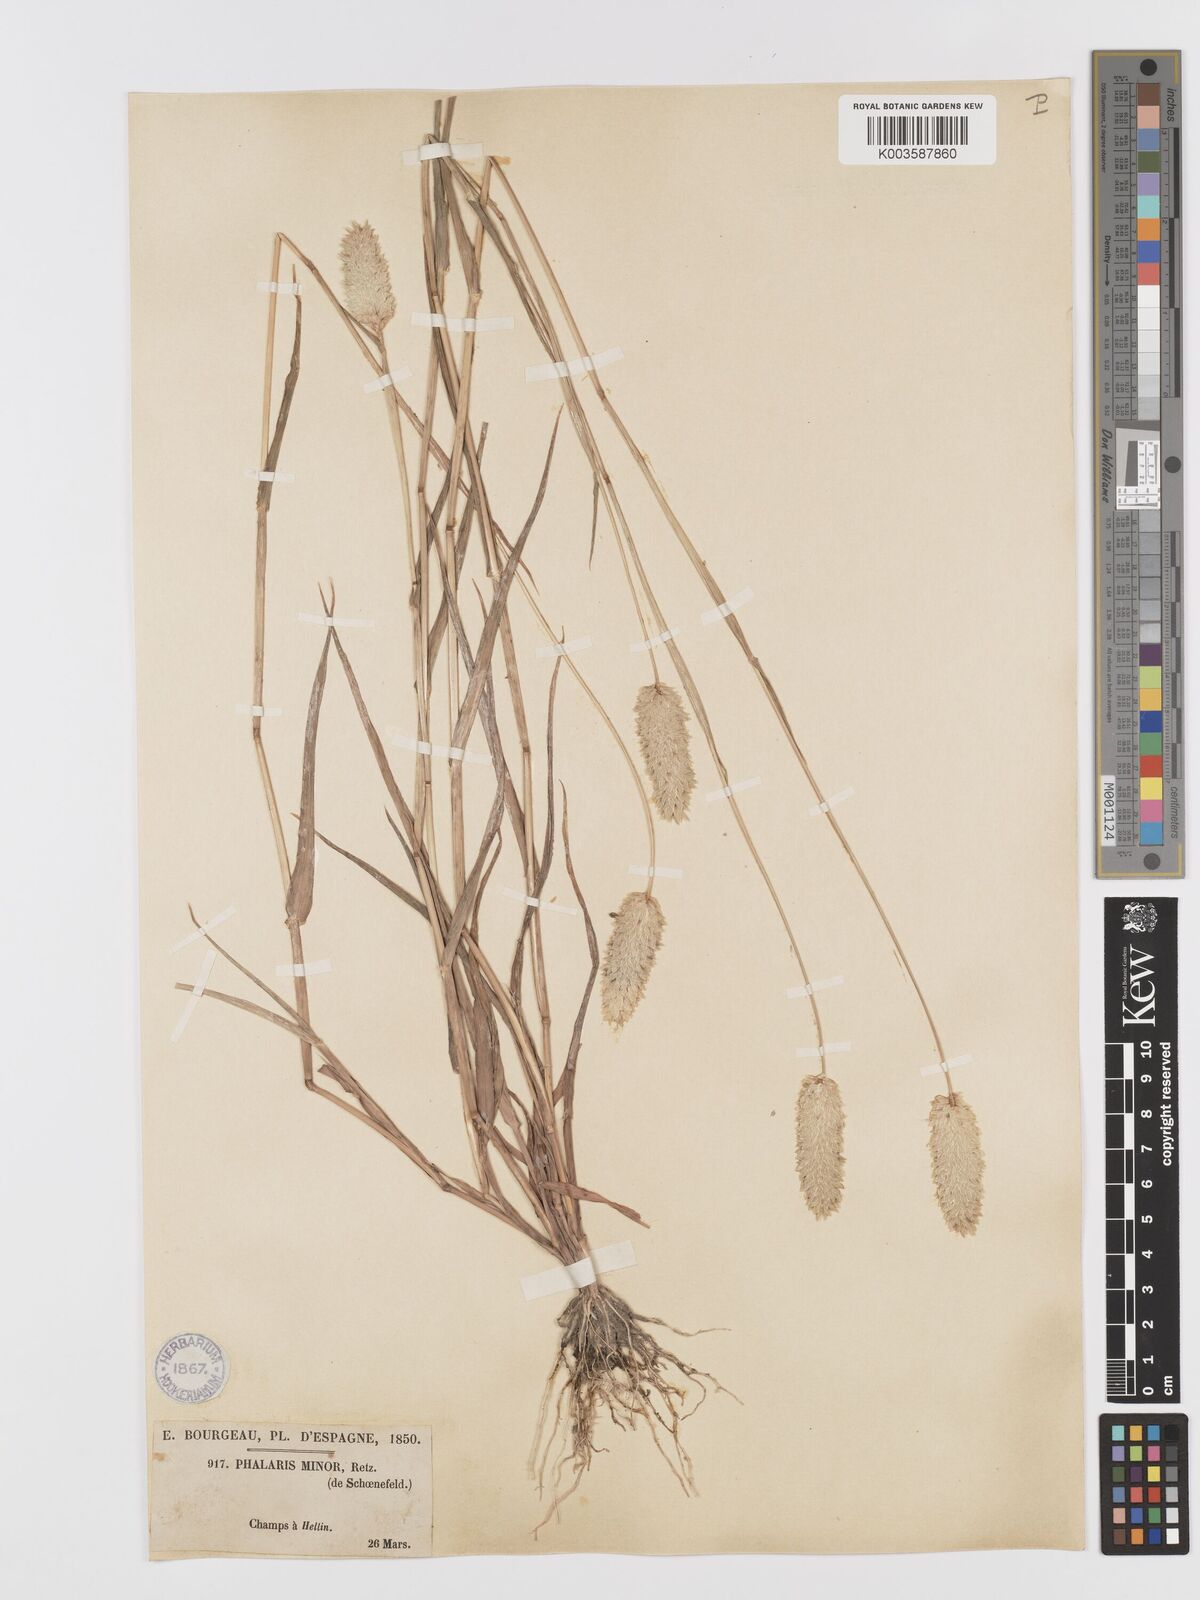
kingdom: Plantae
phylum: Tracheophyta
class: Liliopsida
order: Poales
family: Poaceae
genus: Phalaris
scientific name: Phalaris minor
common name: Littleseed canarygrass
